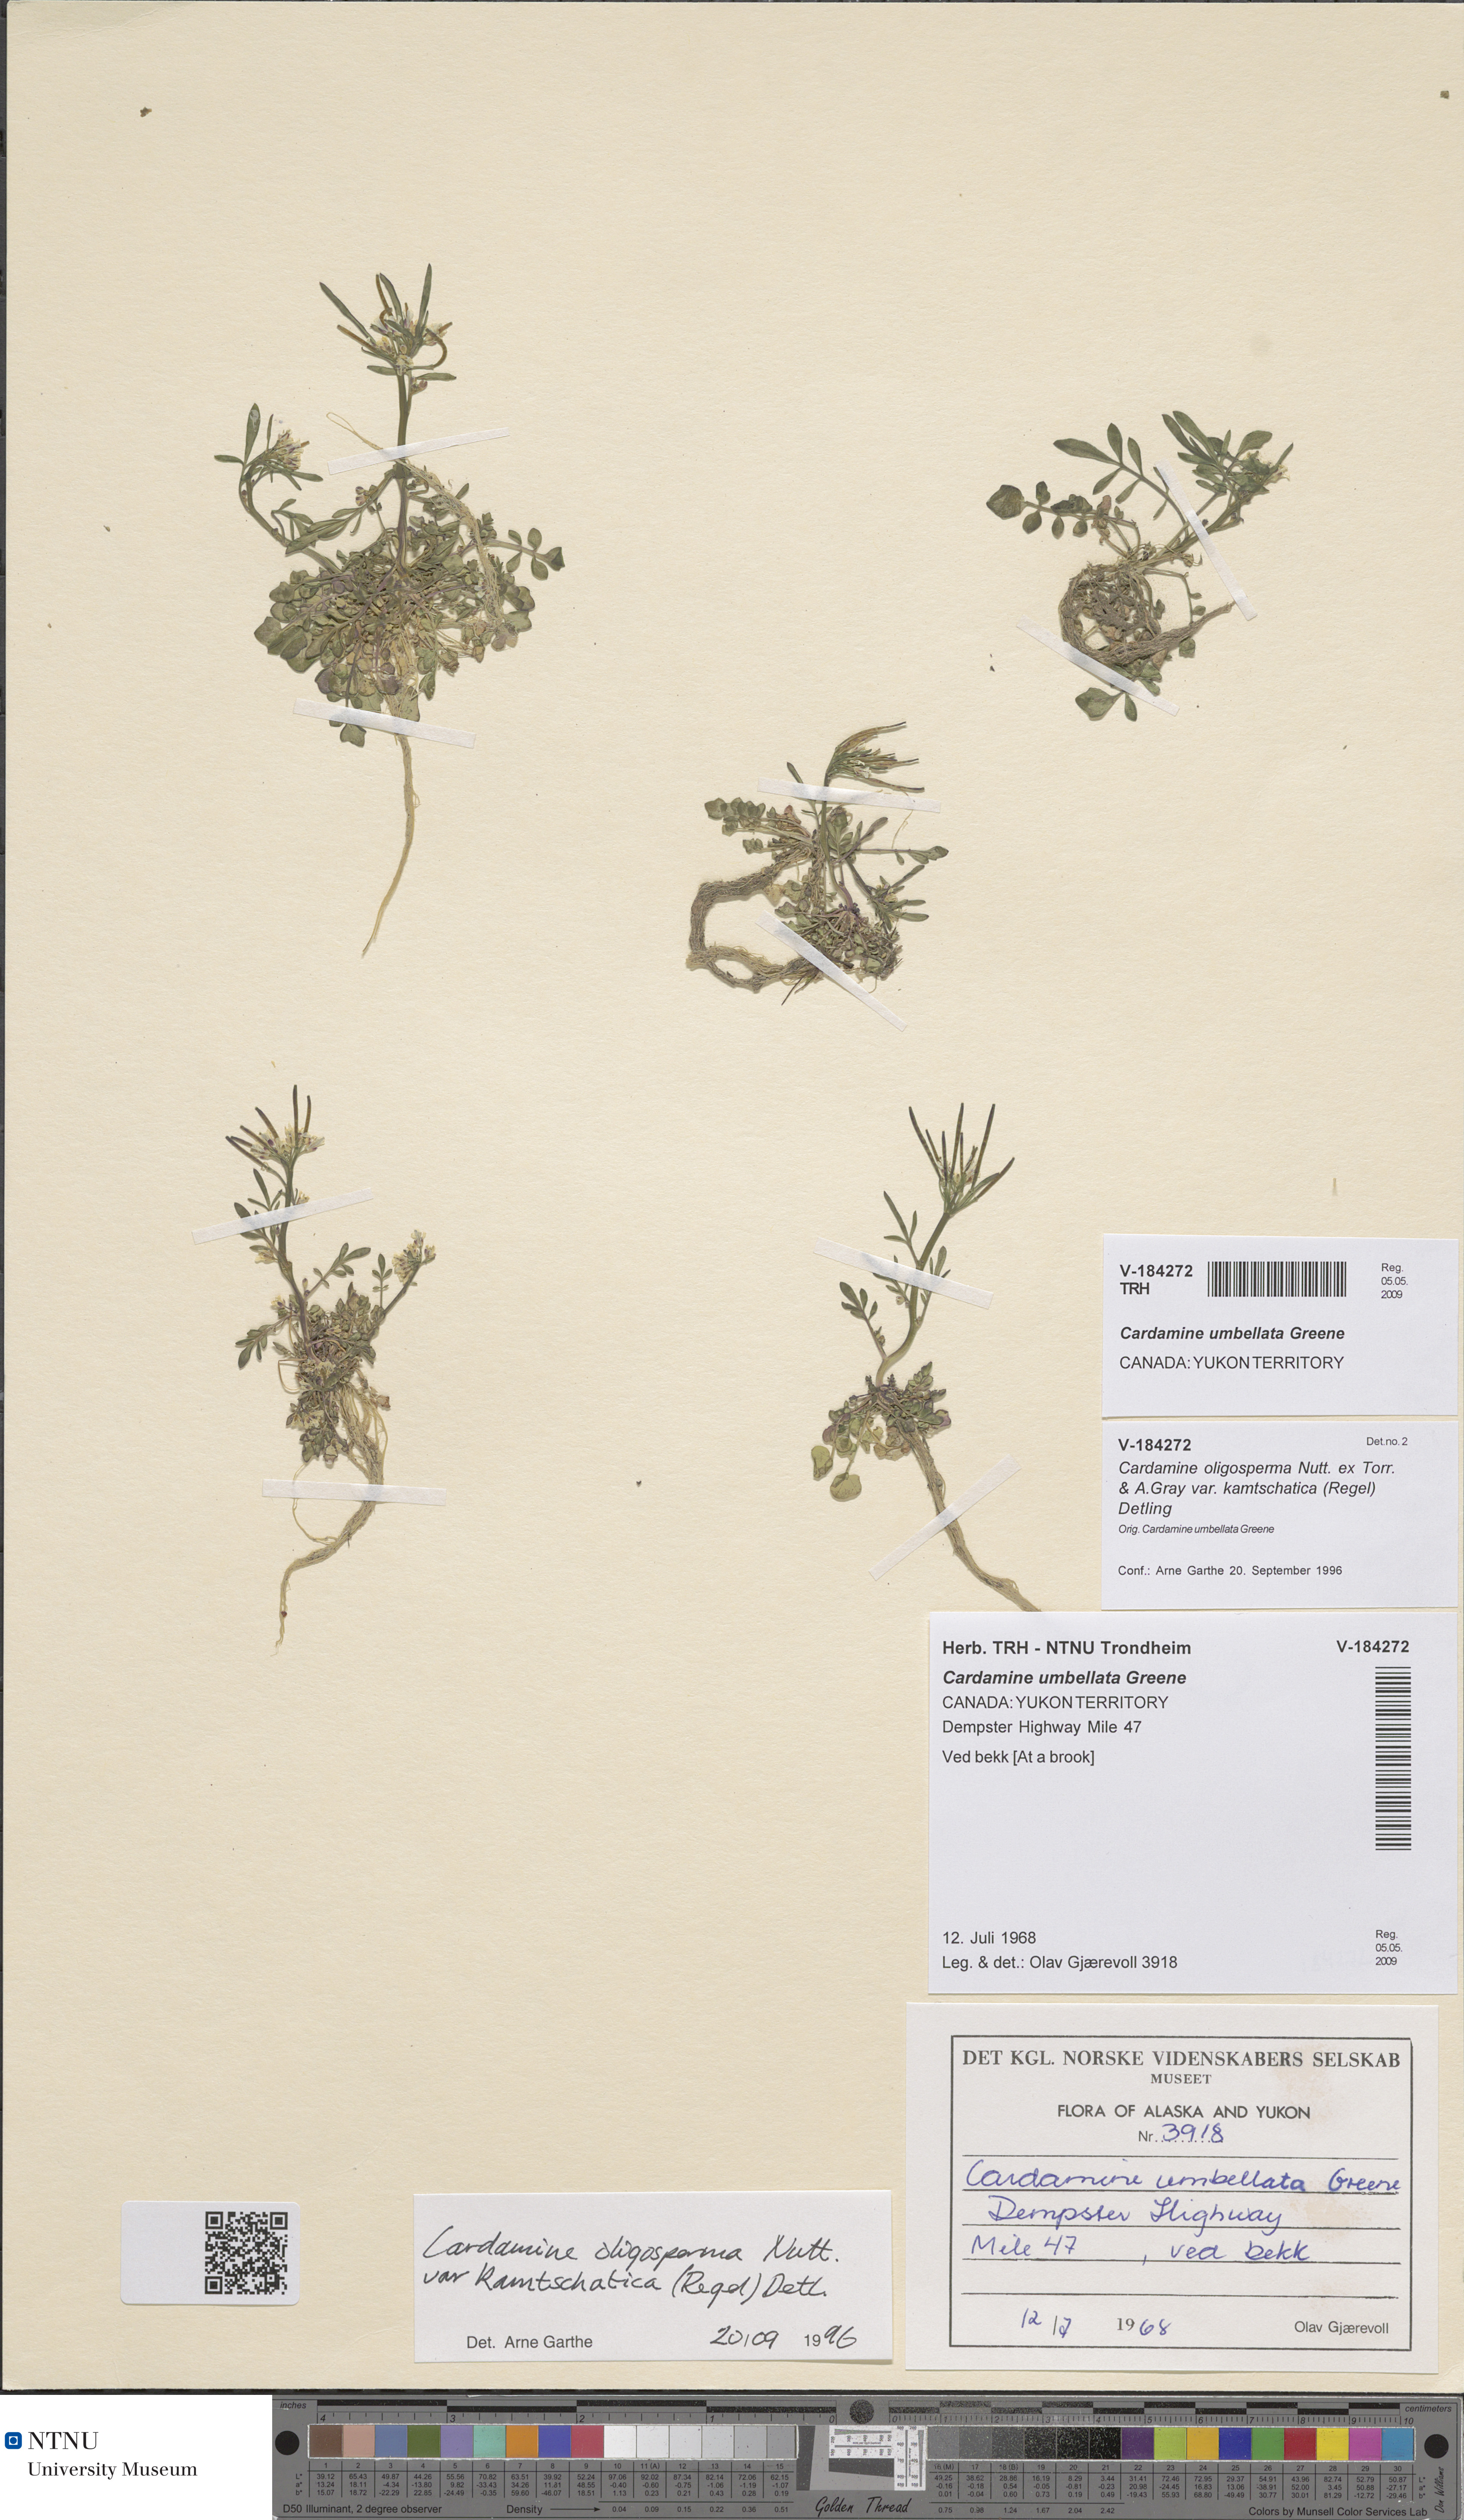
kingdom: Plantae
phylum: Tracheophyta
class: Magnoliopsida
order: Brassicales
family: Brassicaceae
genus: Cardamine
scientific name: Cardamine umbellata
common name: Siberian bittercress
